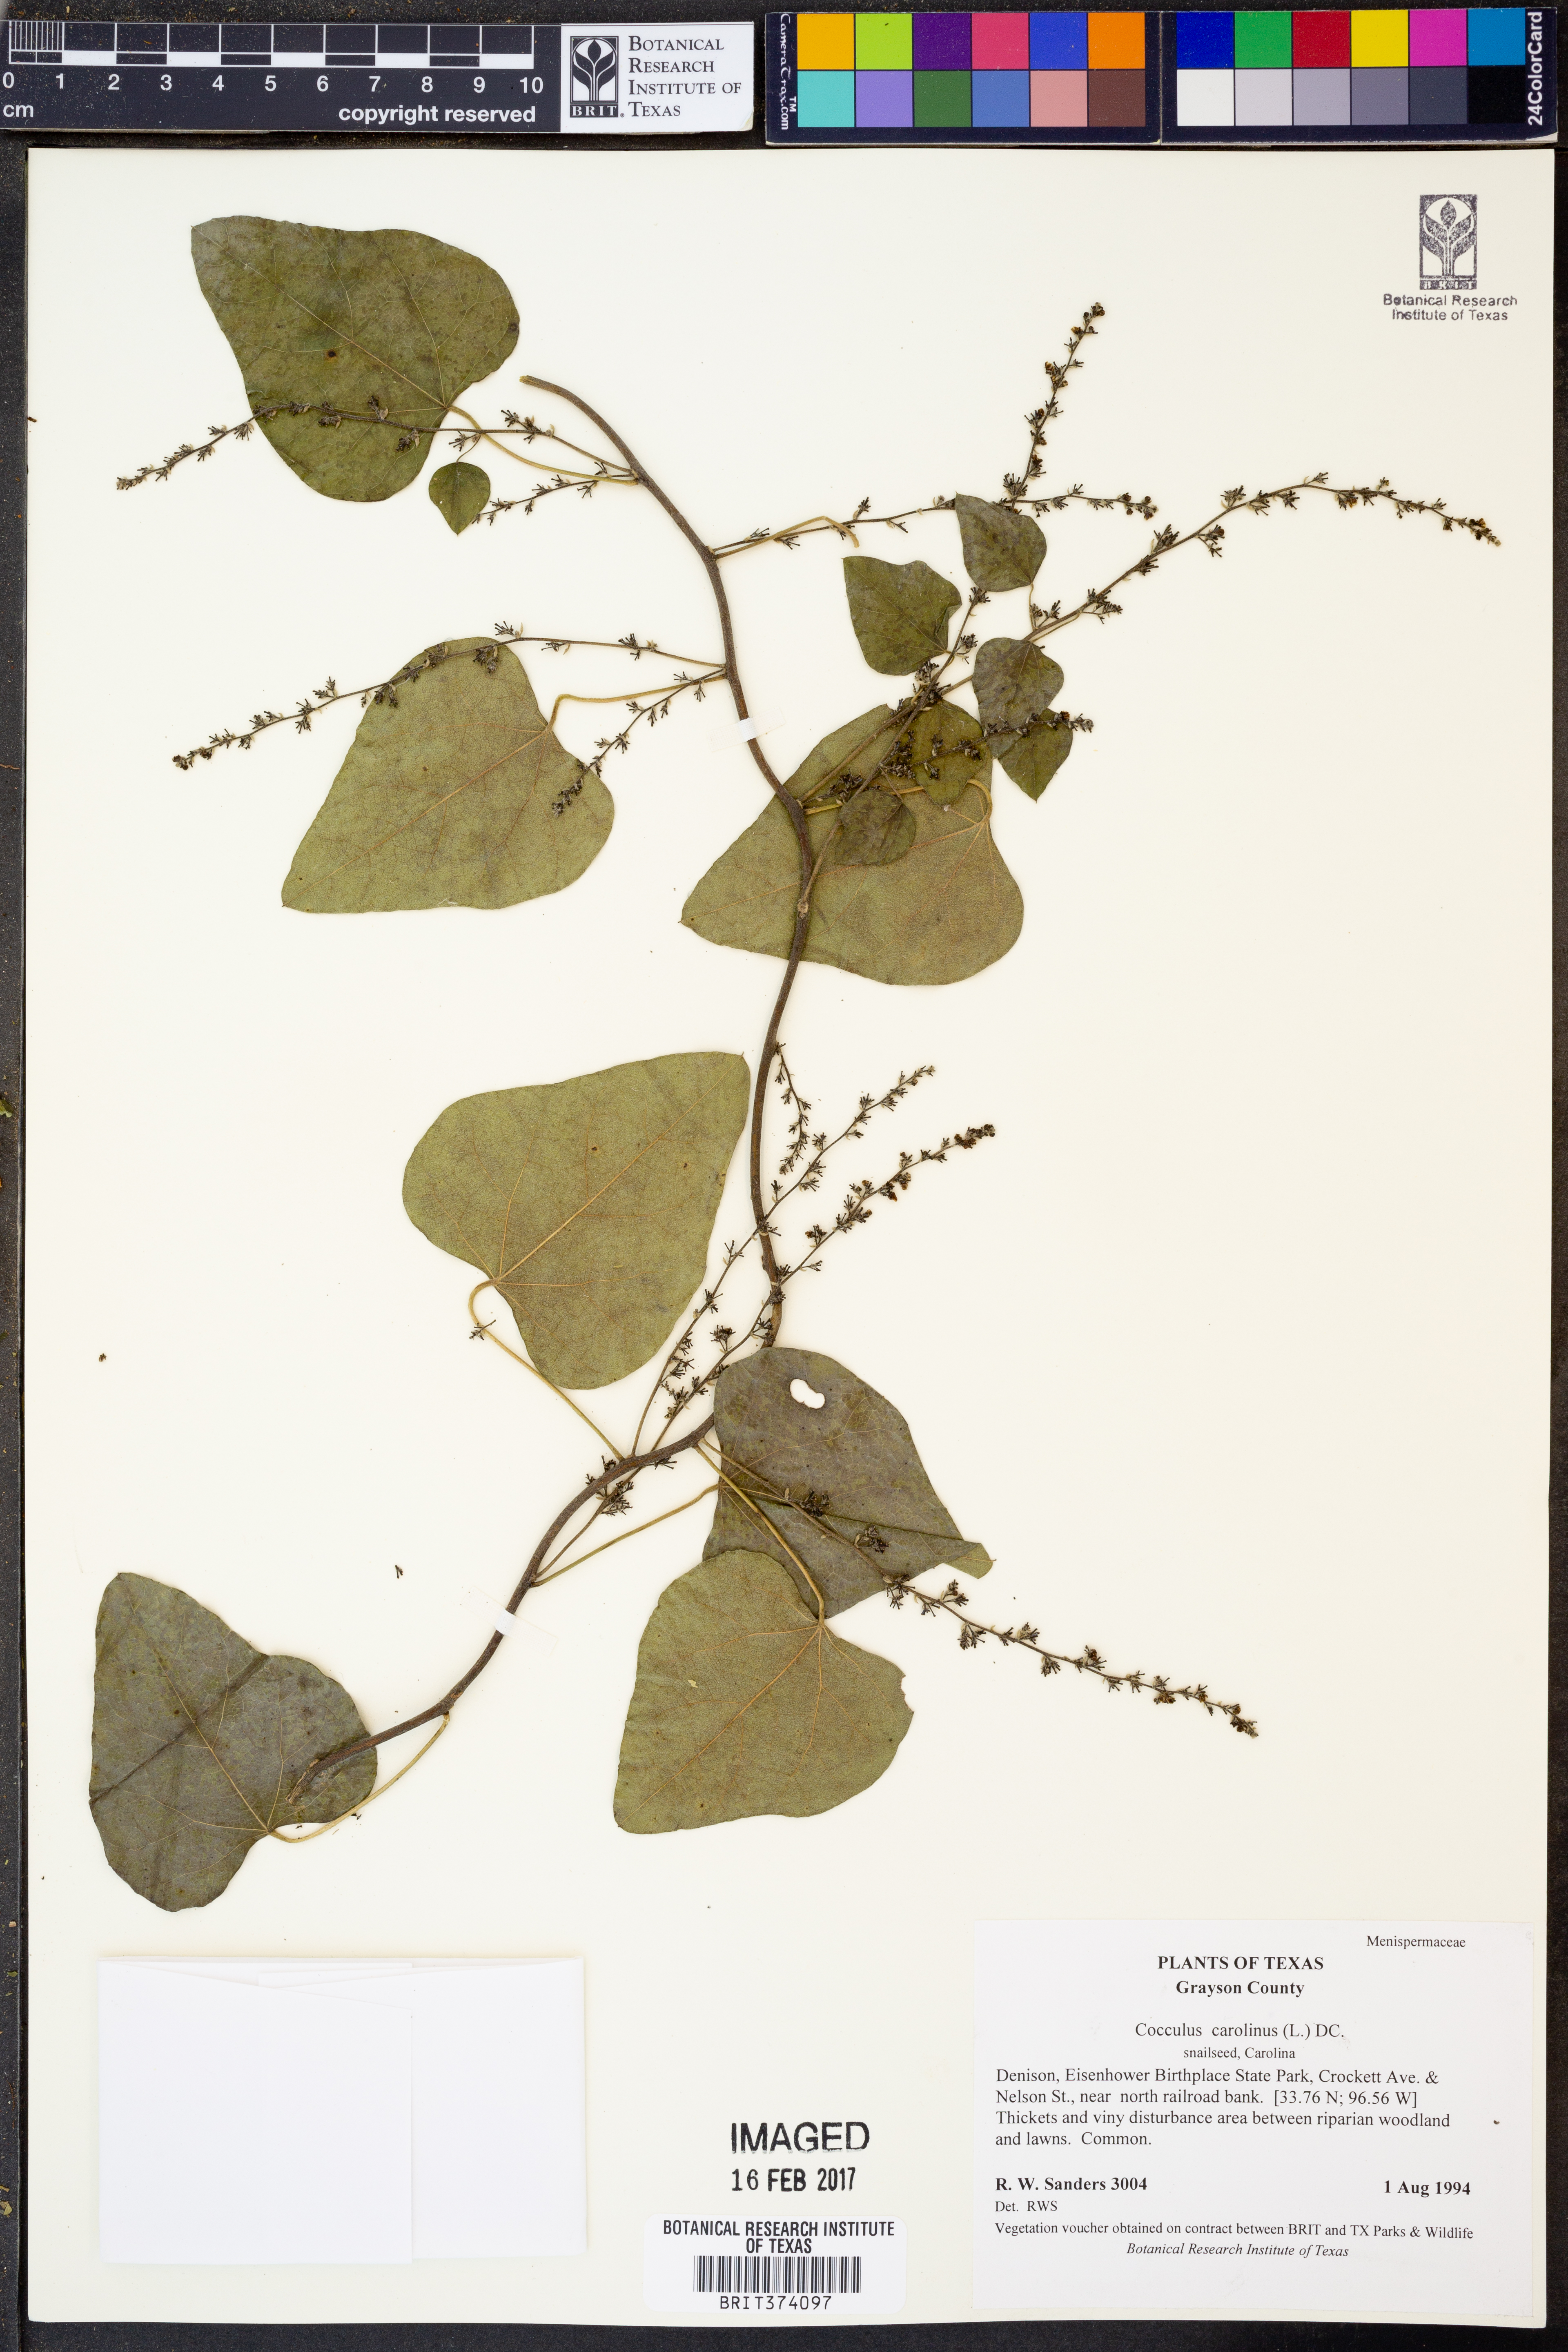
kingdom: Plantae
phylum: Tracheophyta
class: Magnoliopsida
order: Ranunculales
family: Menispermaceae
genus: Cocculus
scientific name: Cocculus carolinus
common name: Carolina moonseed
